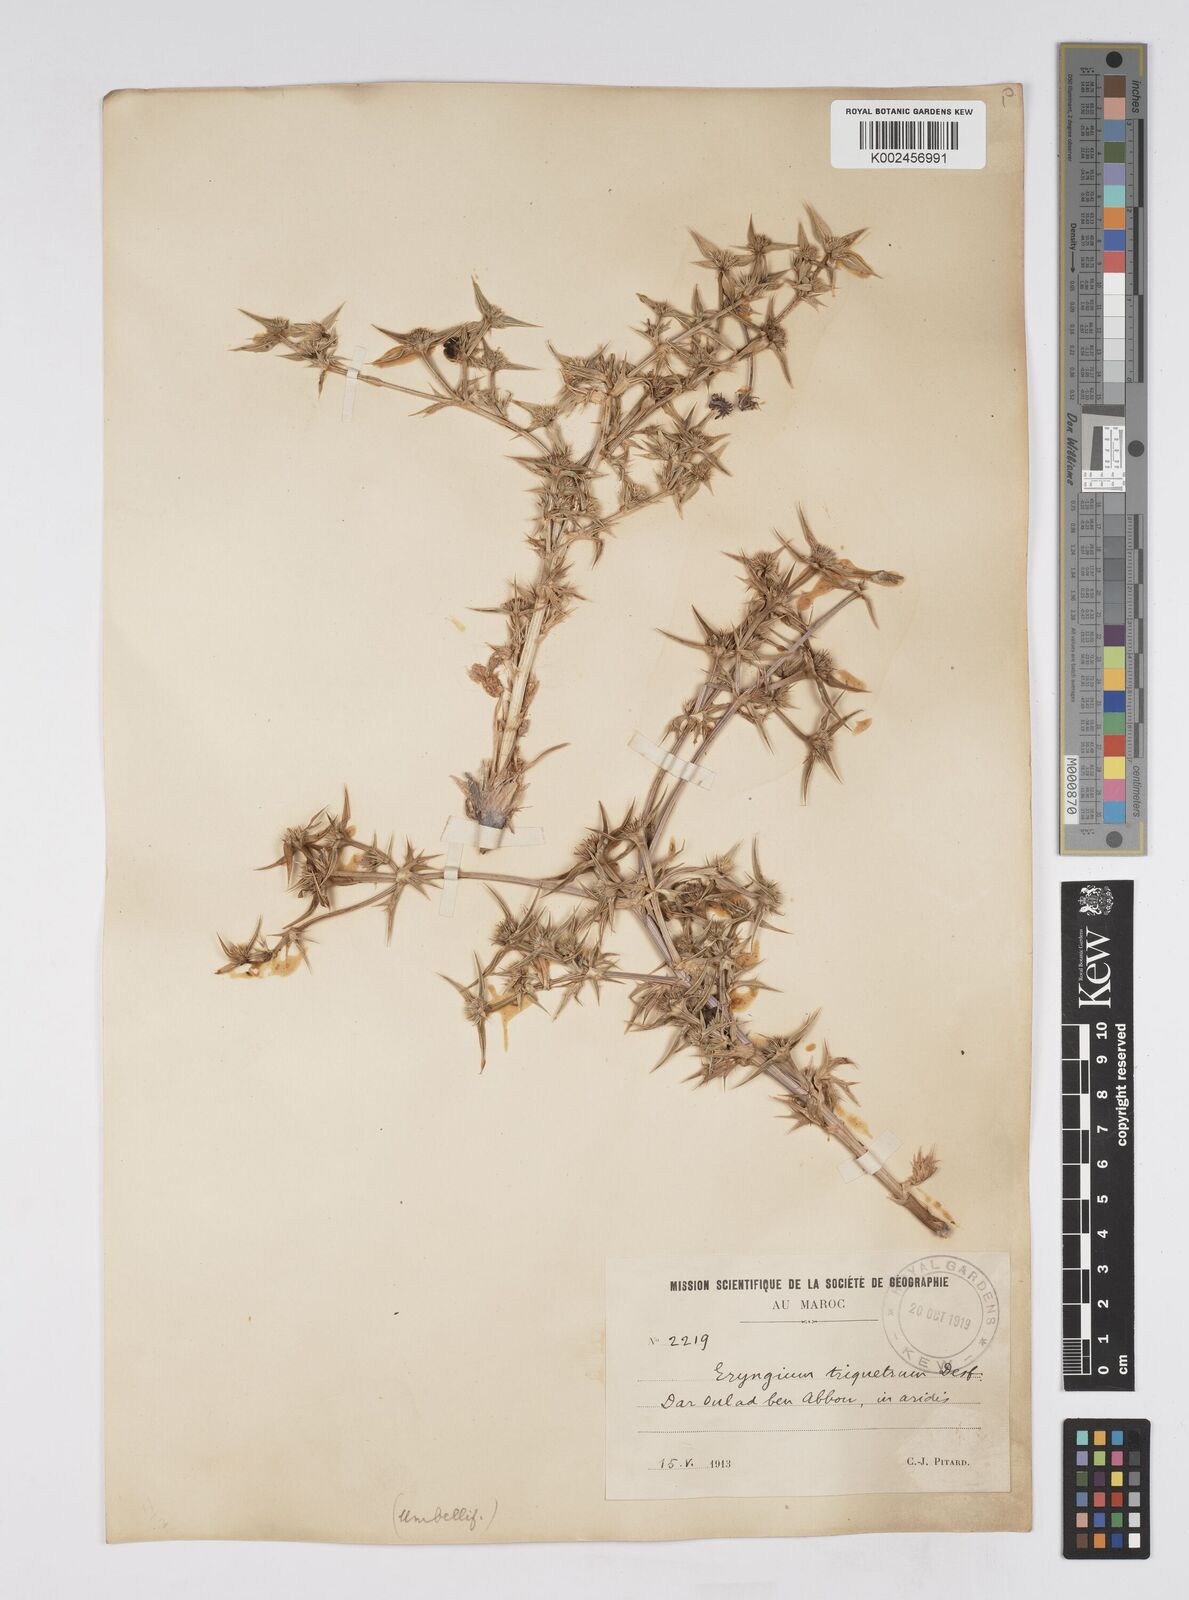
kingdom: Plantae
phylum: Tracheophyta
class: Magnoliopsida
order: Apiales
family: Apiaceae
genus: Eryngium
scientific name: Eryngium
